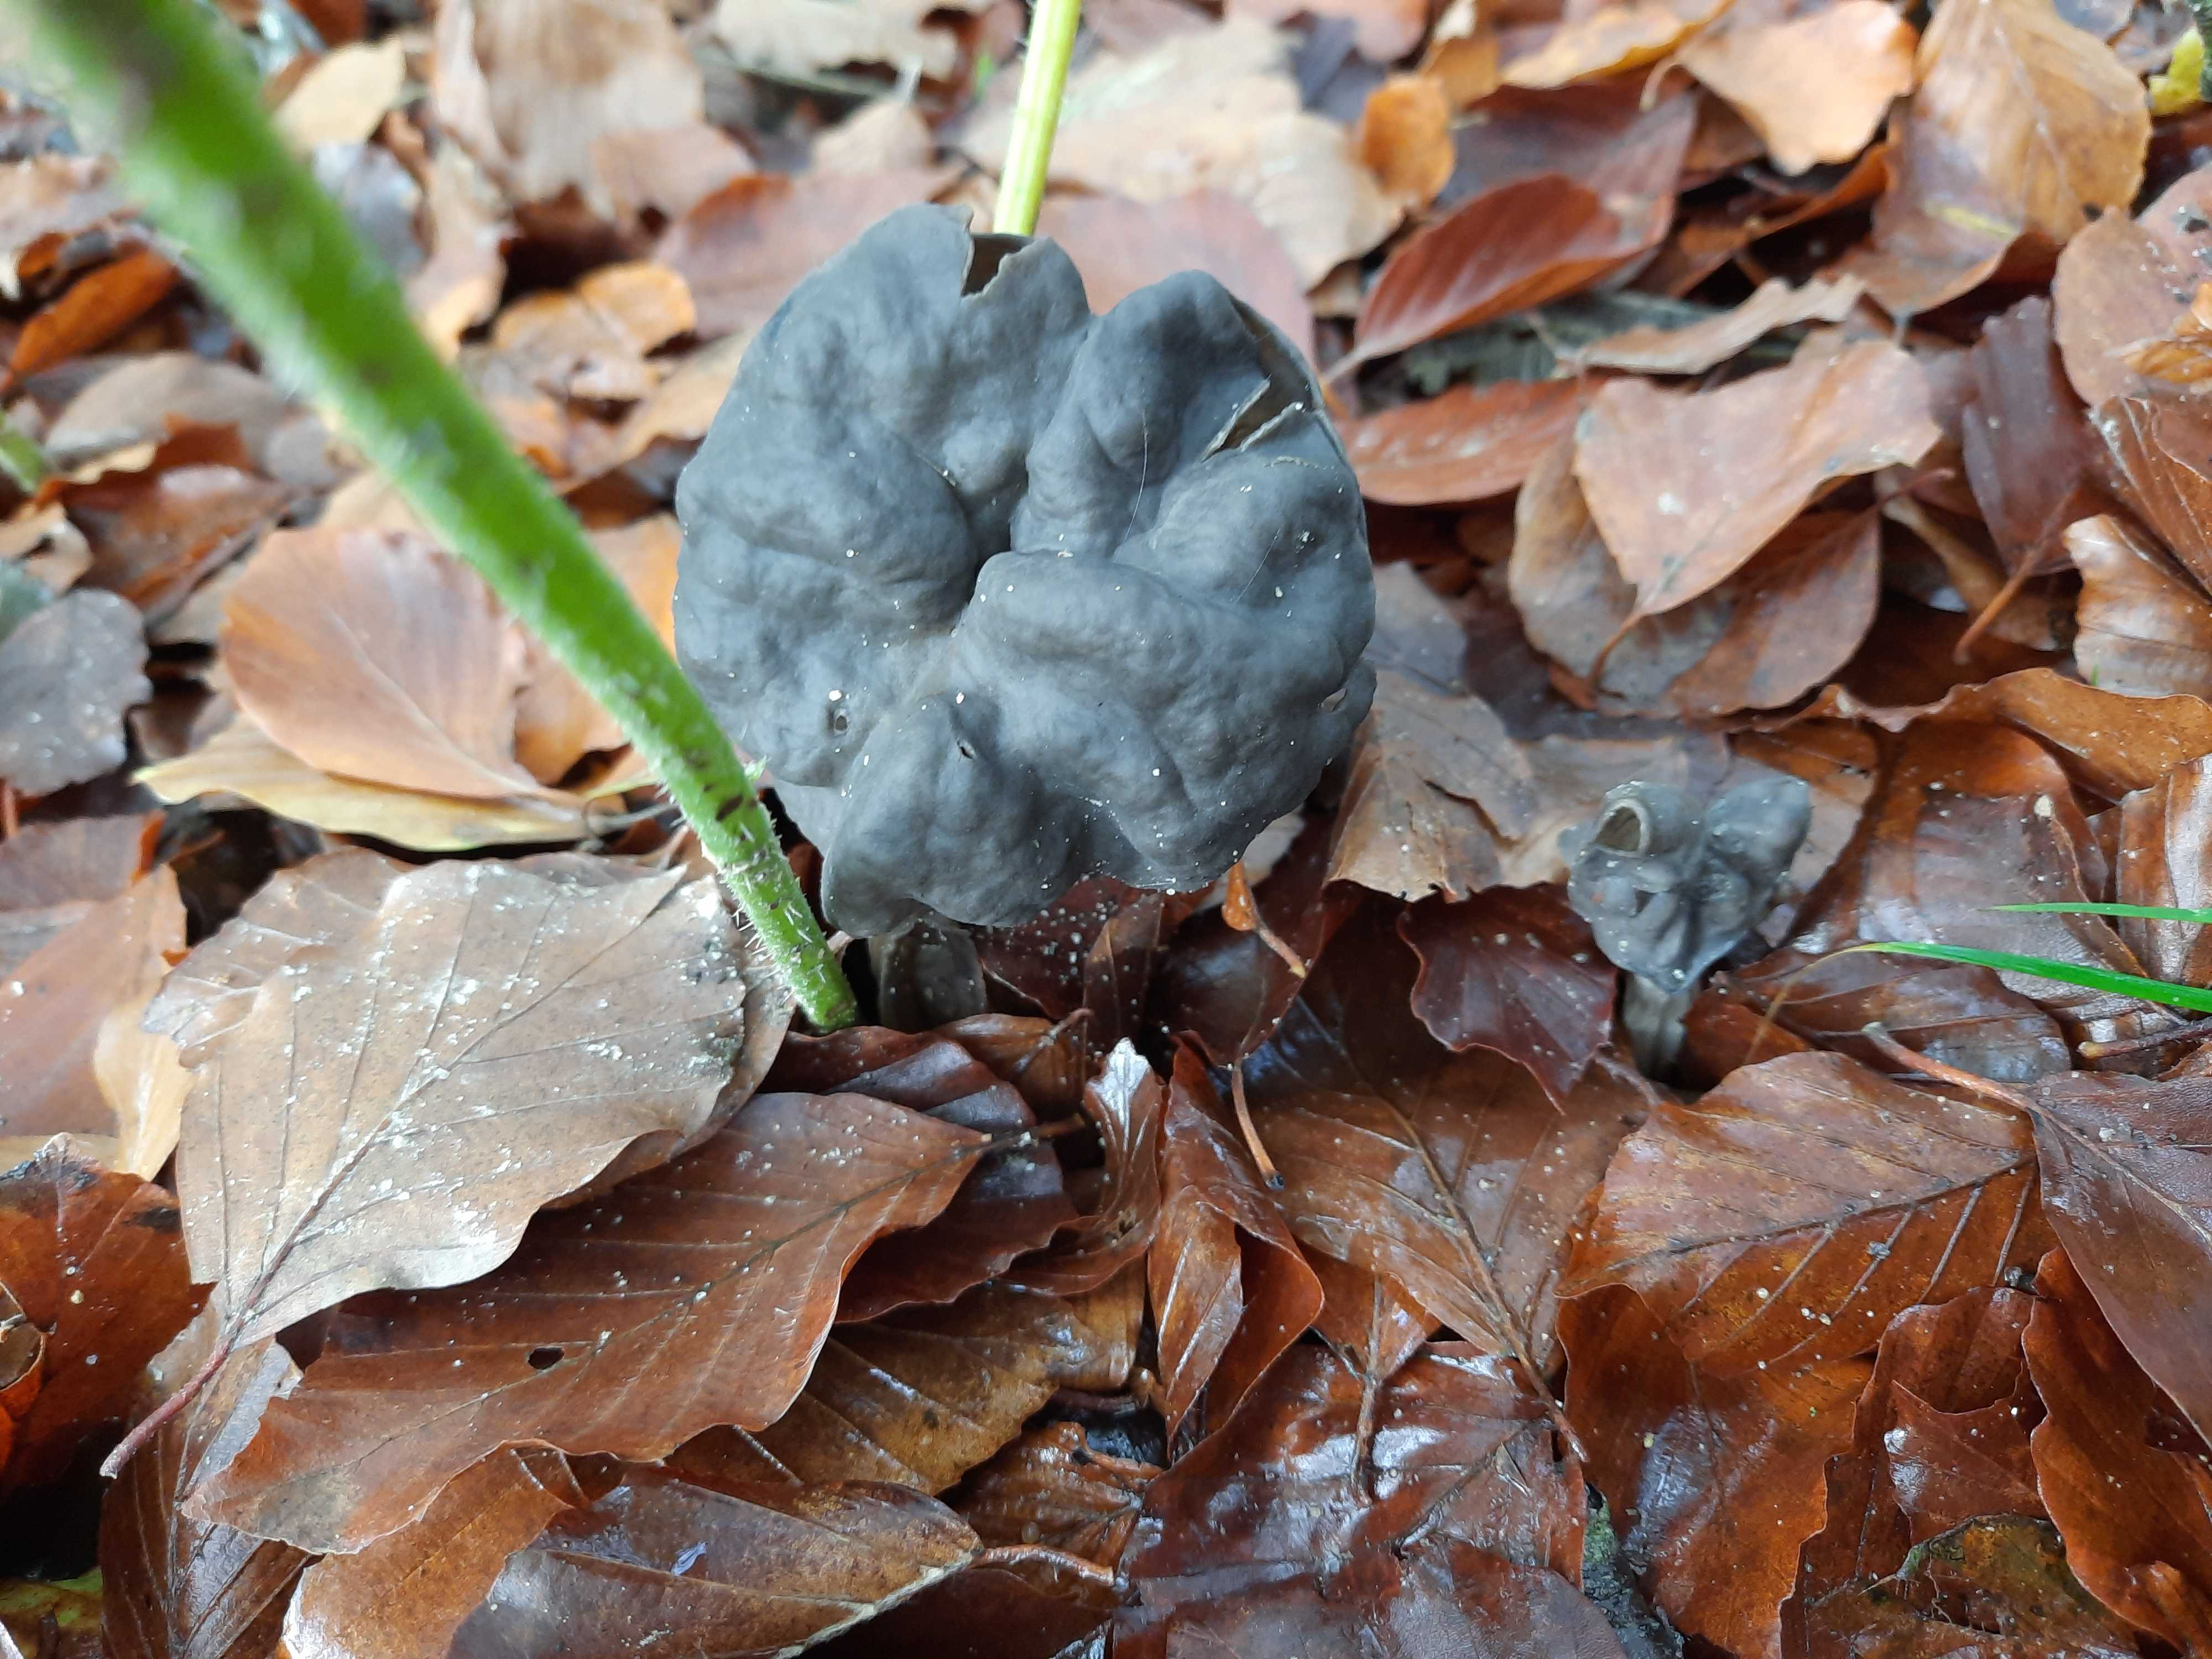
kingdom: Fungi
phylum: Ascomycota
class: Pezizomycetes
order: Pezizales
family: Helvellaceae
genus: Helvella
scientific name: Helvella lacunosa
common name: grubet foldhat
